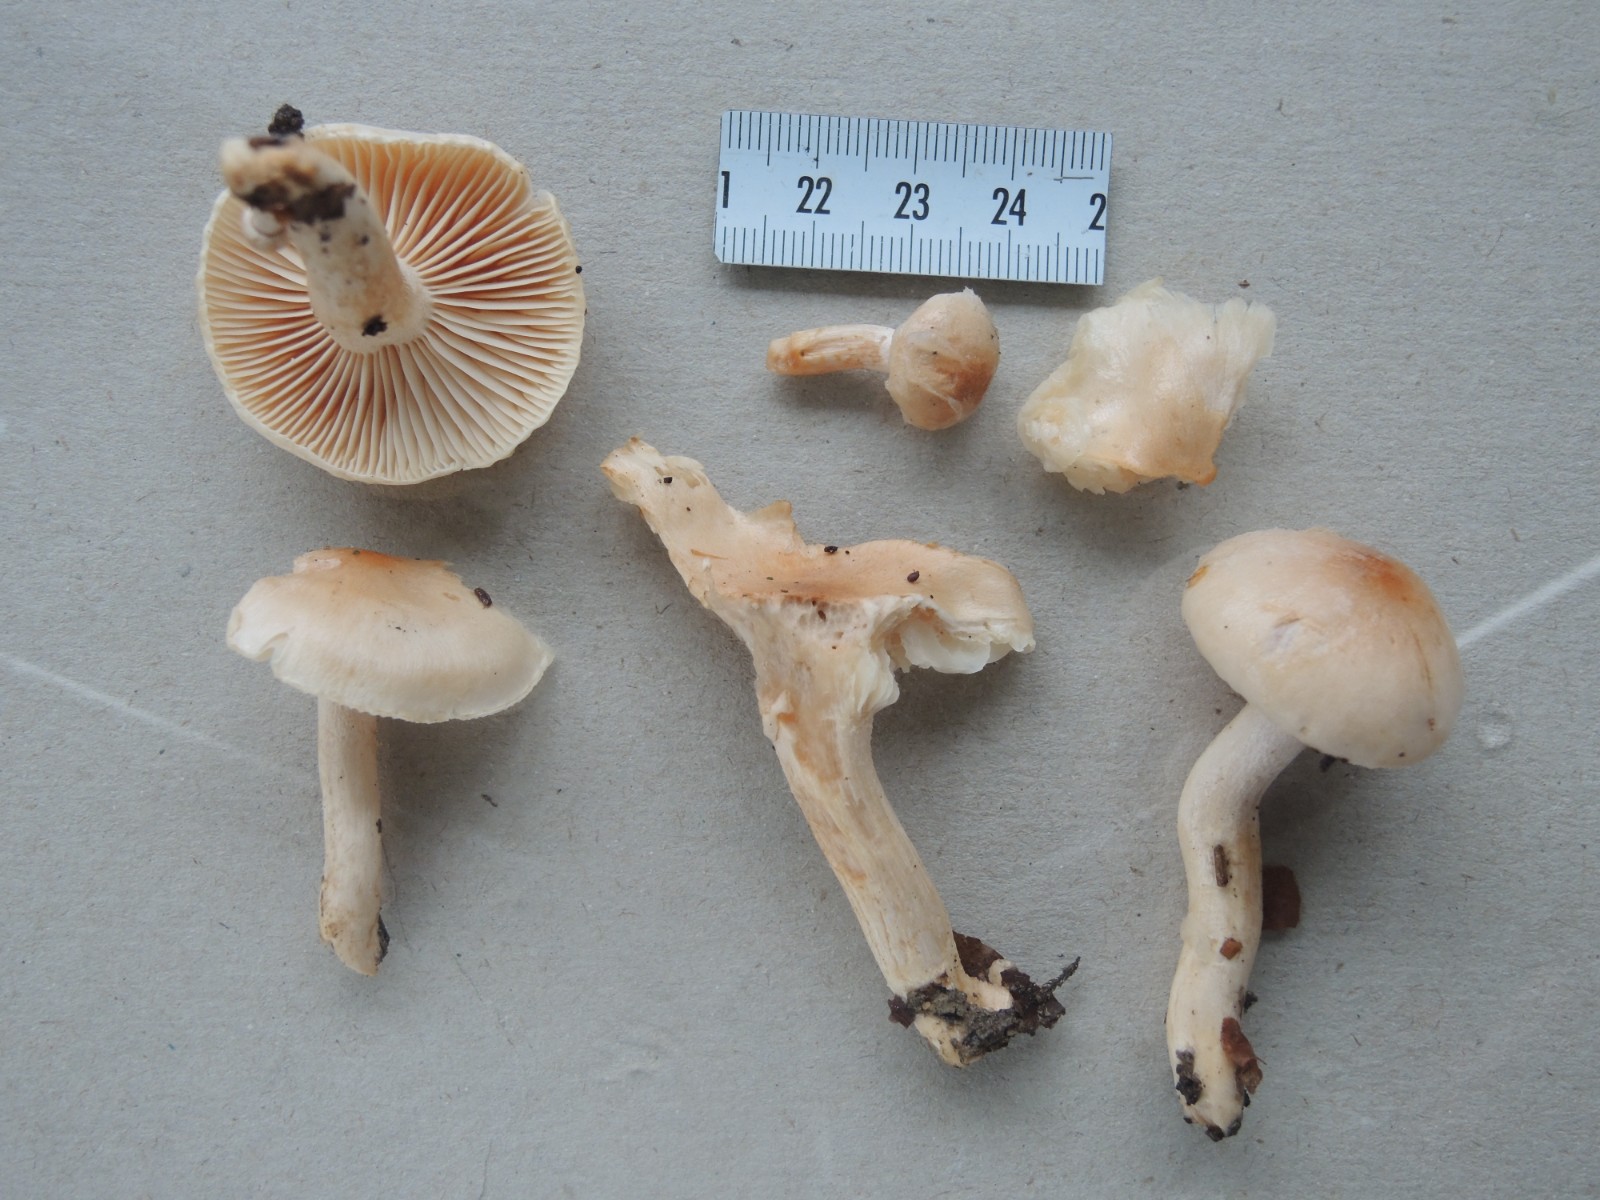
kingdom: Fungi
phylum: Basidiomycota
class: Agaricomycetes
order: Agaricales
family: Hygrophoraceae
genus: Hygrophorus
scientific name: Hygrophorus unicolor
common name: orangeøjet sneglehat
